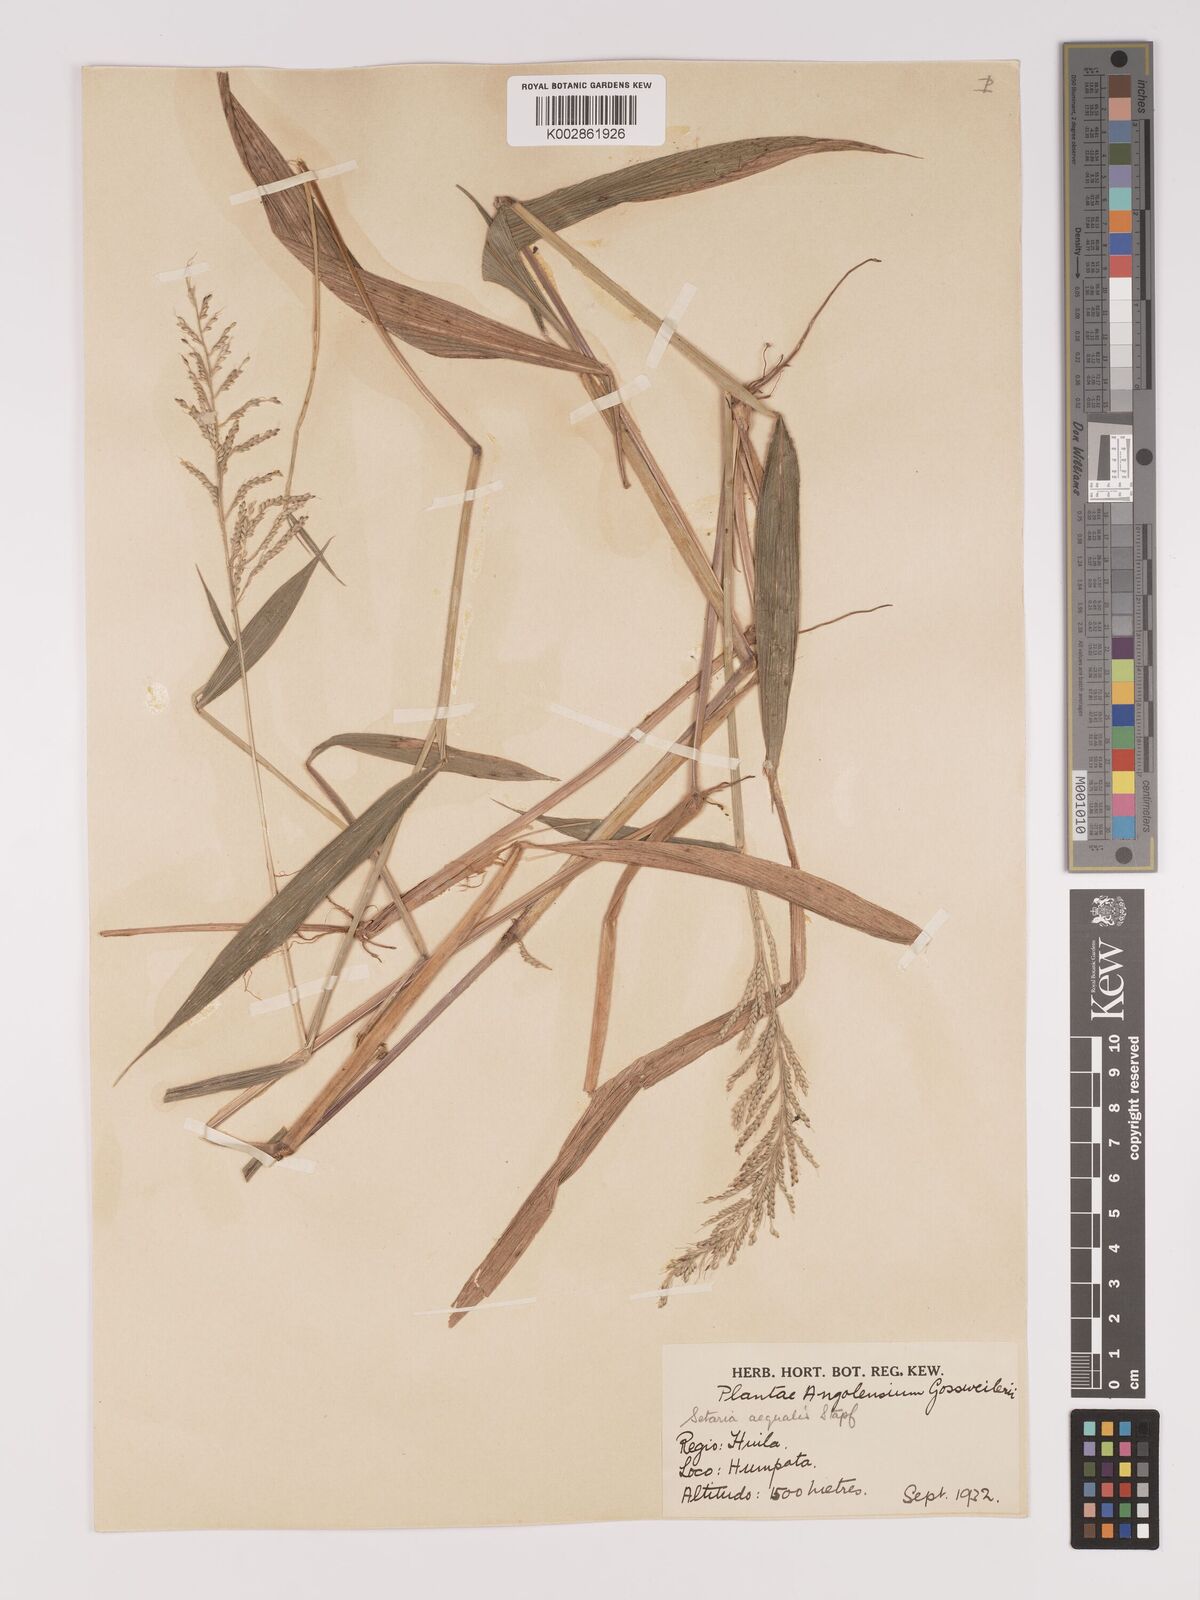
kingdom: Plantae
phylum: Tracheophyta
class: Liliopsida
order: Poales
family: Poaceae
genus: Setaria
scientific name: Setaria homonyma
